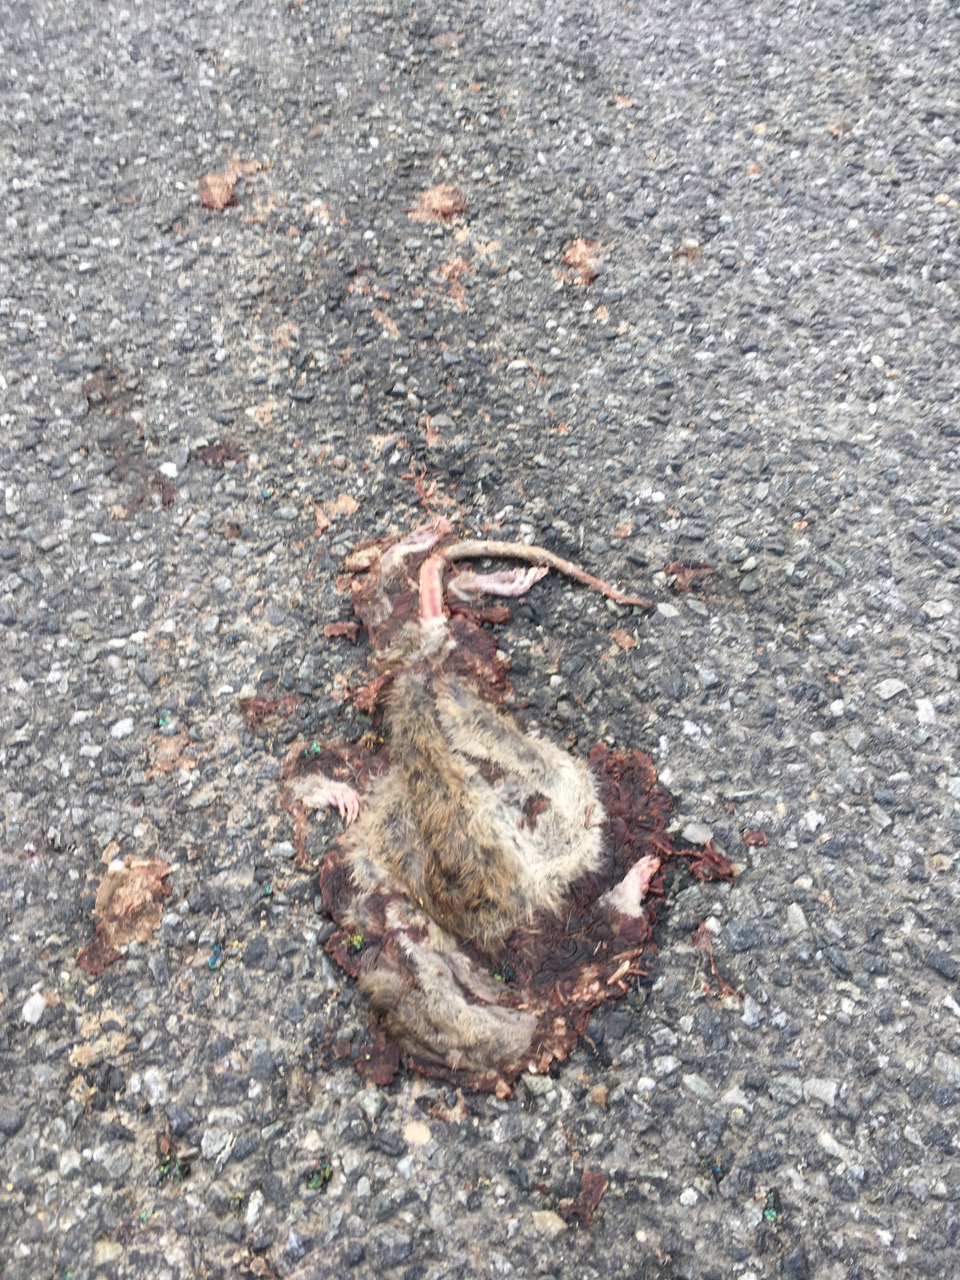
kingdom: Animalia
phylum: Chordata
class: Mammalia
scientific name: Mammalia
